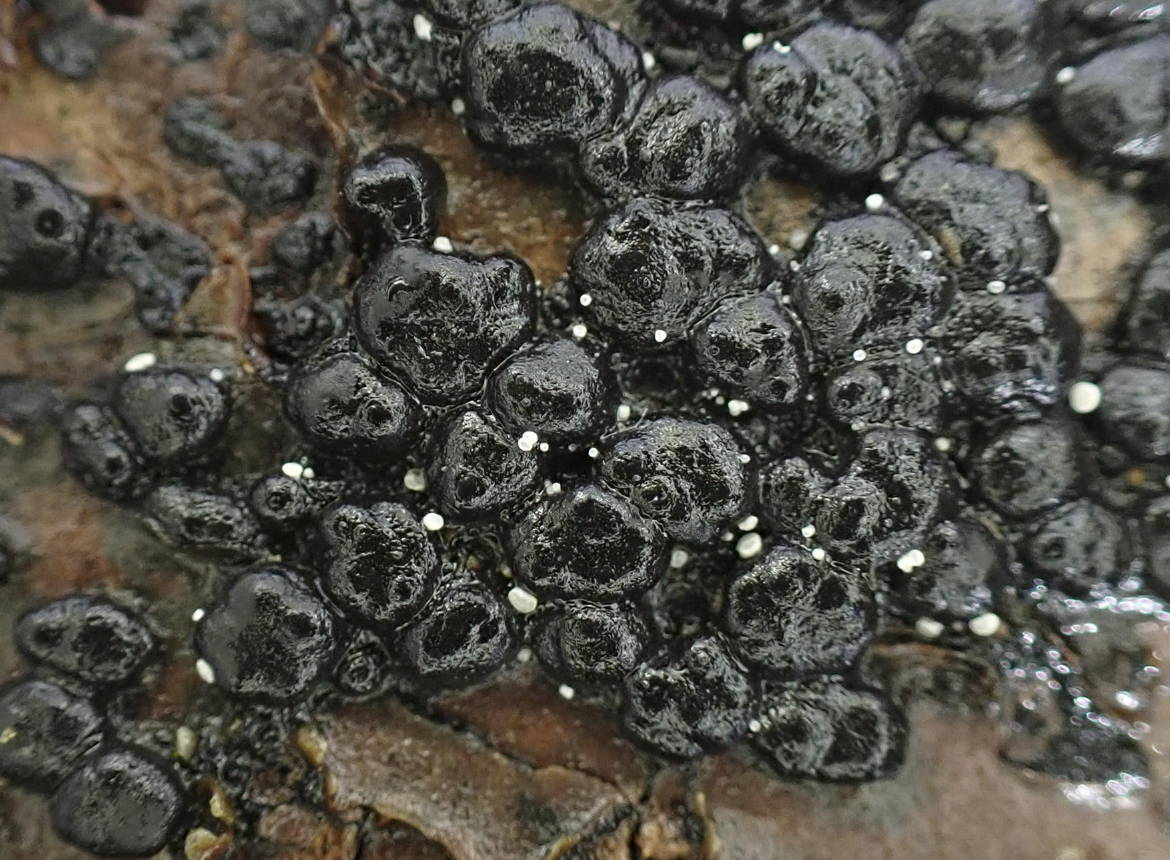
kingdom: Fungi
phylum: Ascomycota
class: Leotiomycetes
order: Helotiales
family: Hyaloscyphaceae
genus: Polydesmia
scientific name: Polydesmia pruinosa
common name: dunskive
